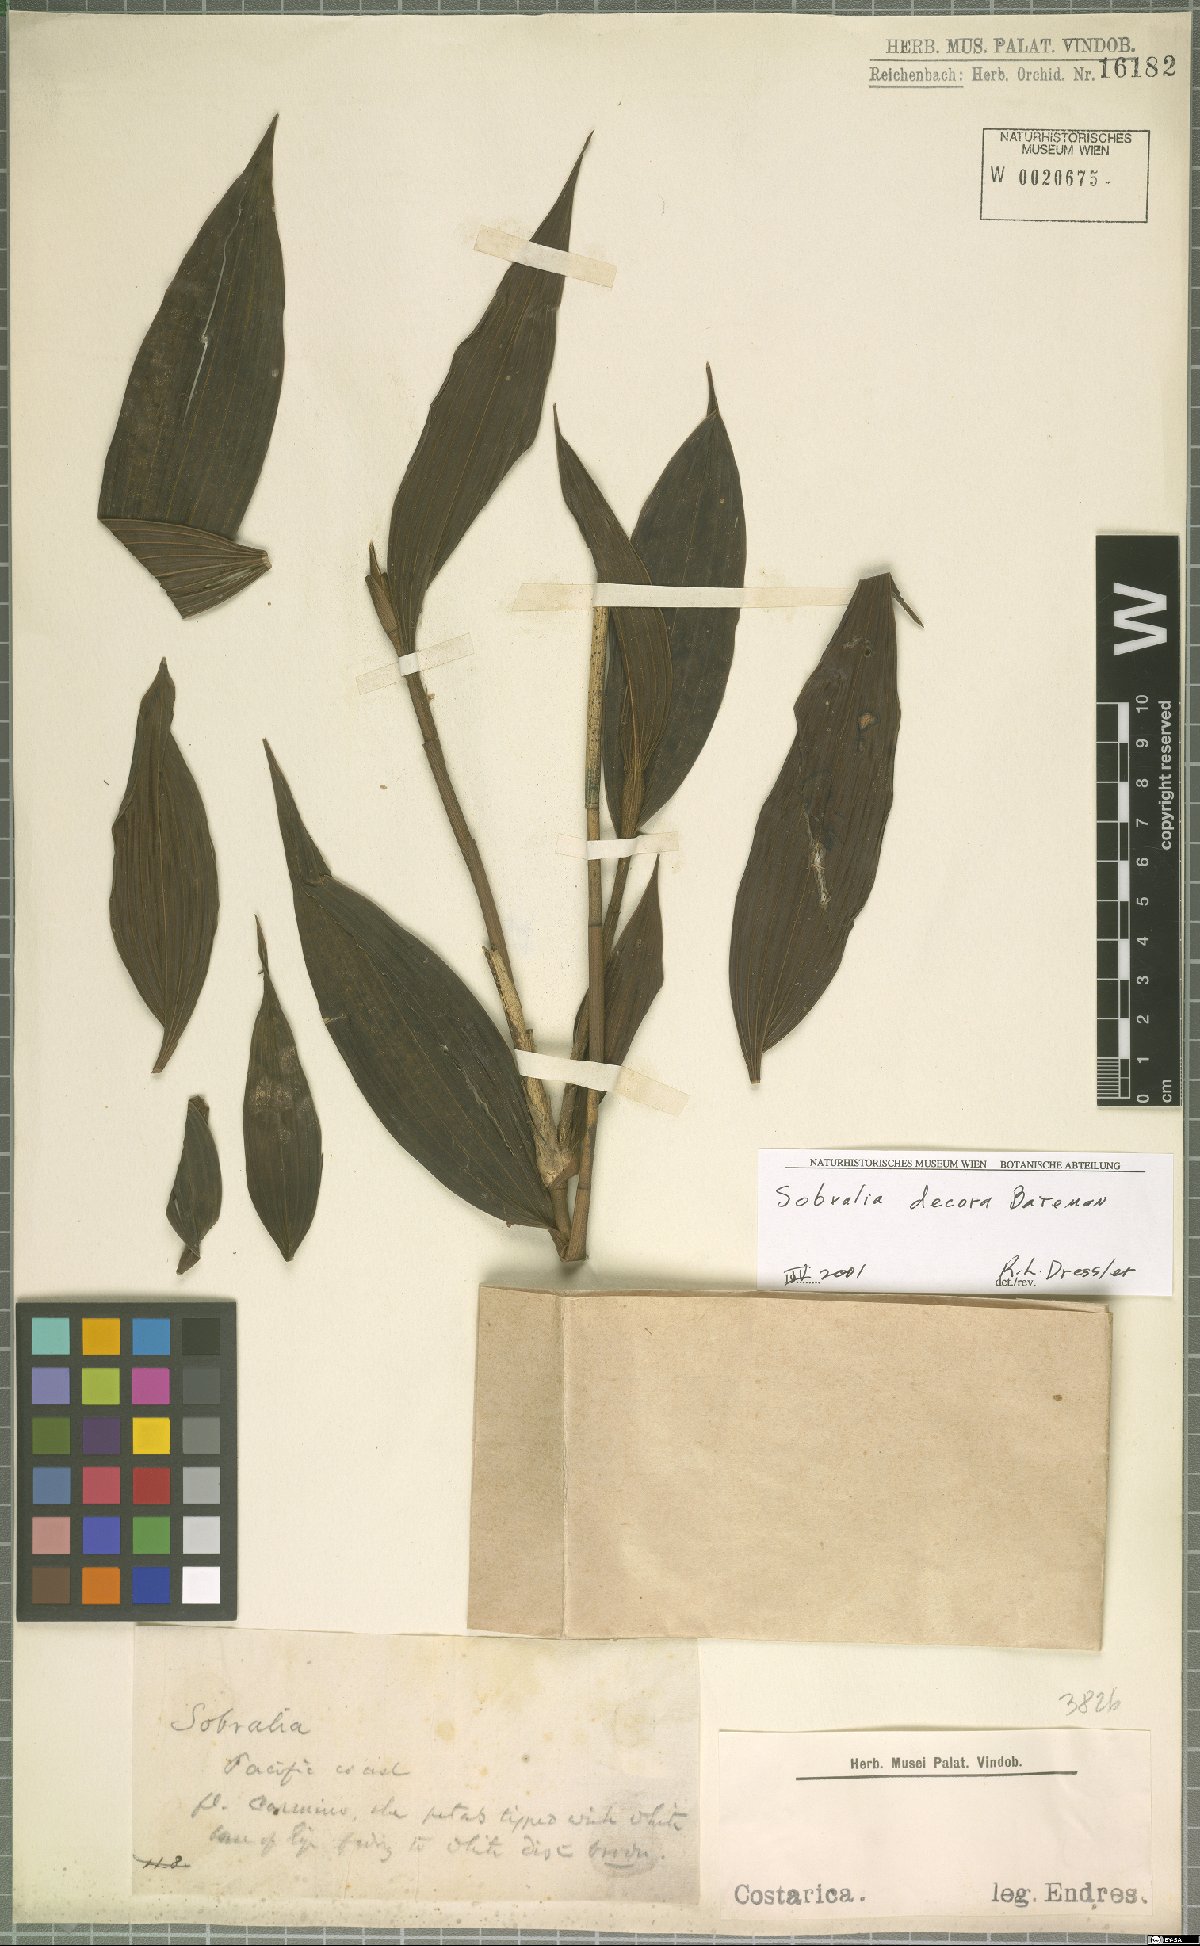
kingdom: Plantae
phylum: Tracheophyta
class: Liliopsida
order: Asparagales
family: Orchidaceae
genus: Sobralia
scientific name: Sobralia decora
